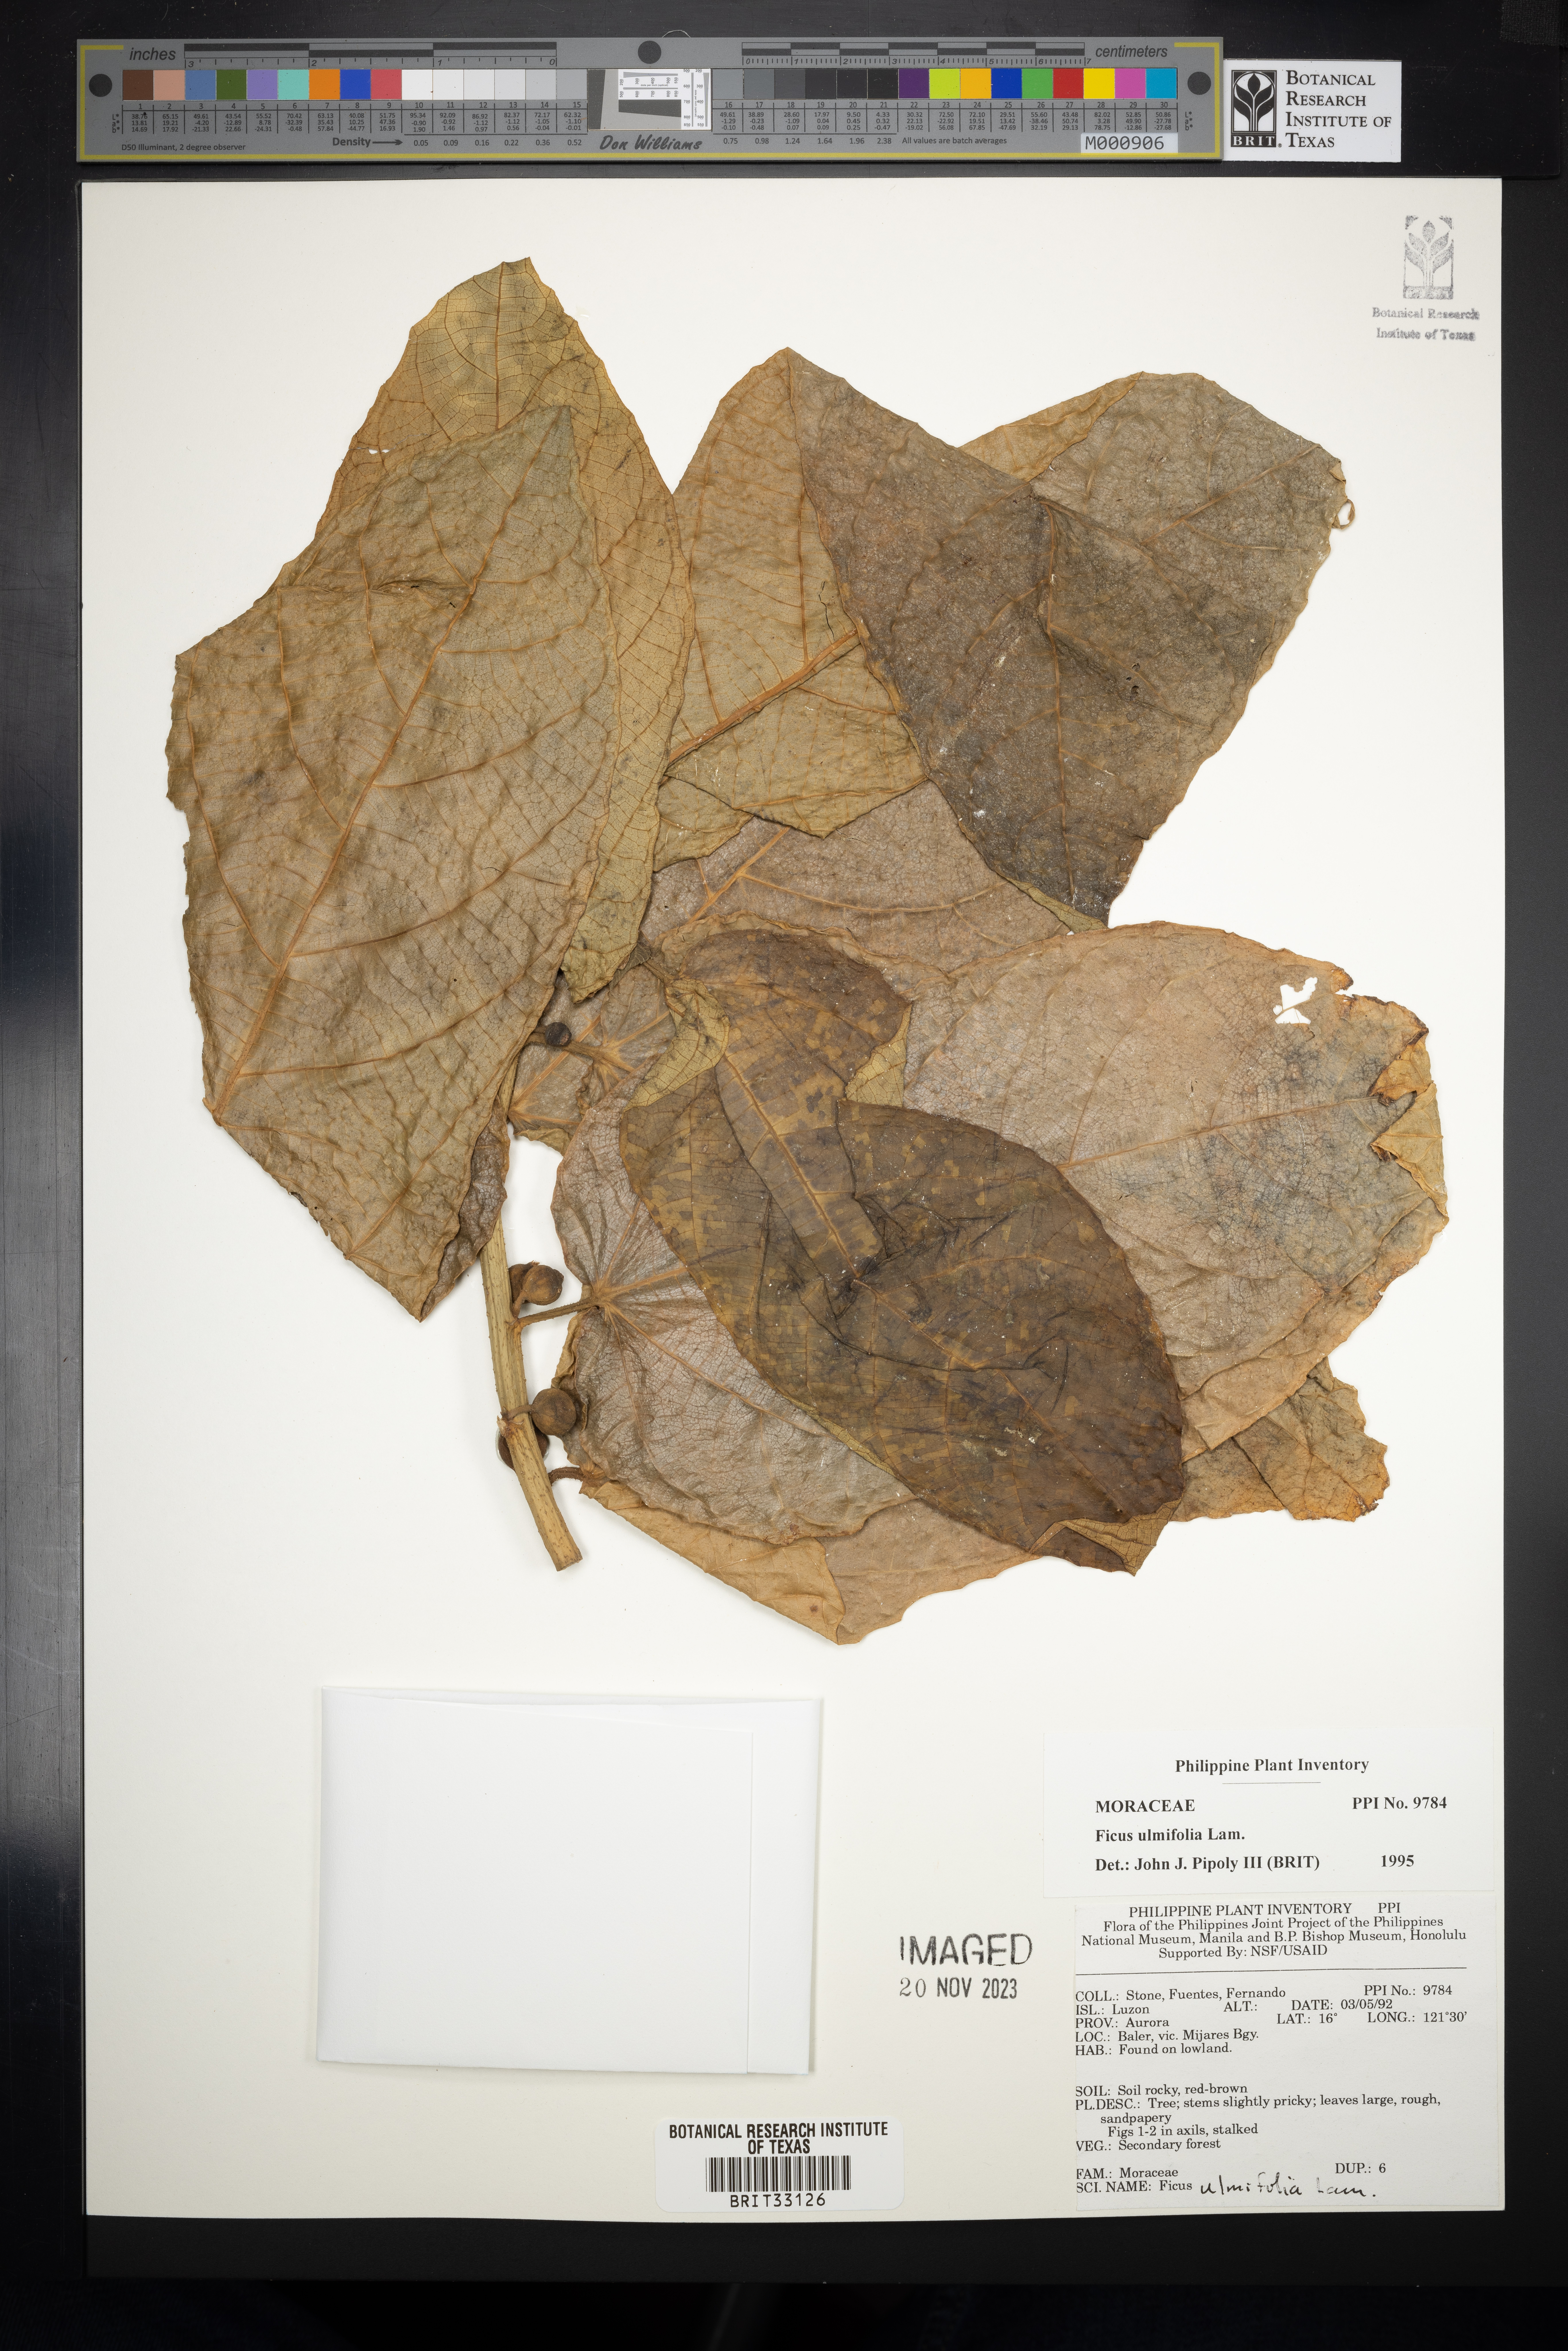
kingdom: Plantae
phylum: Tracheophyta
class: Magnoliopsida
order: Rosales
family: Moraceae
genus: Ficus
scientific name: Ficus ulmifolia
